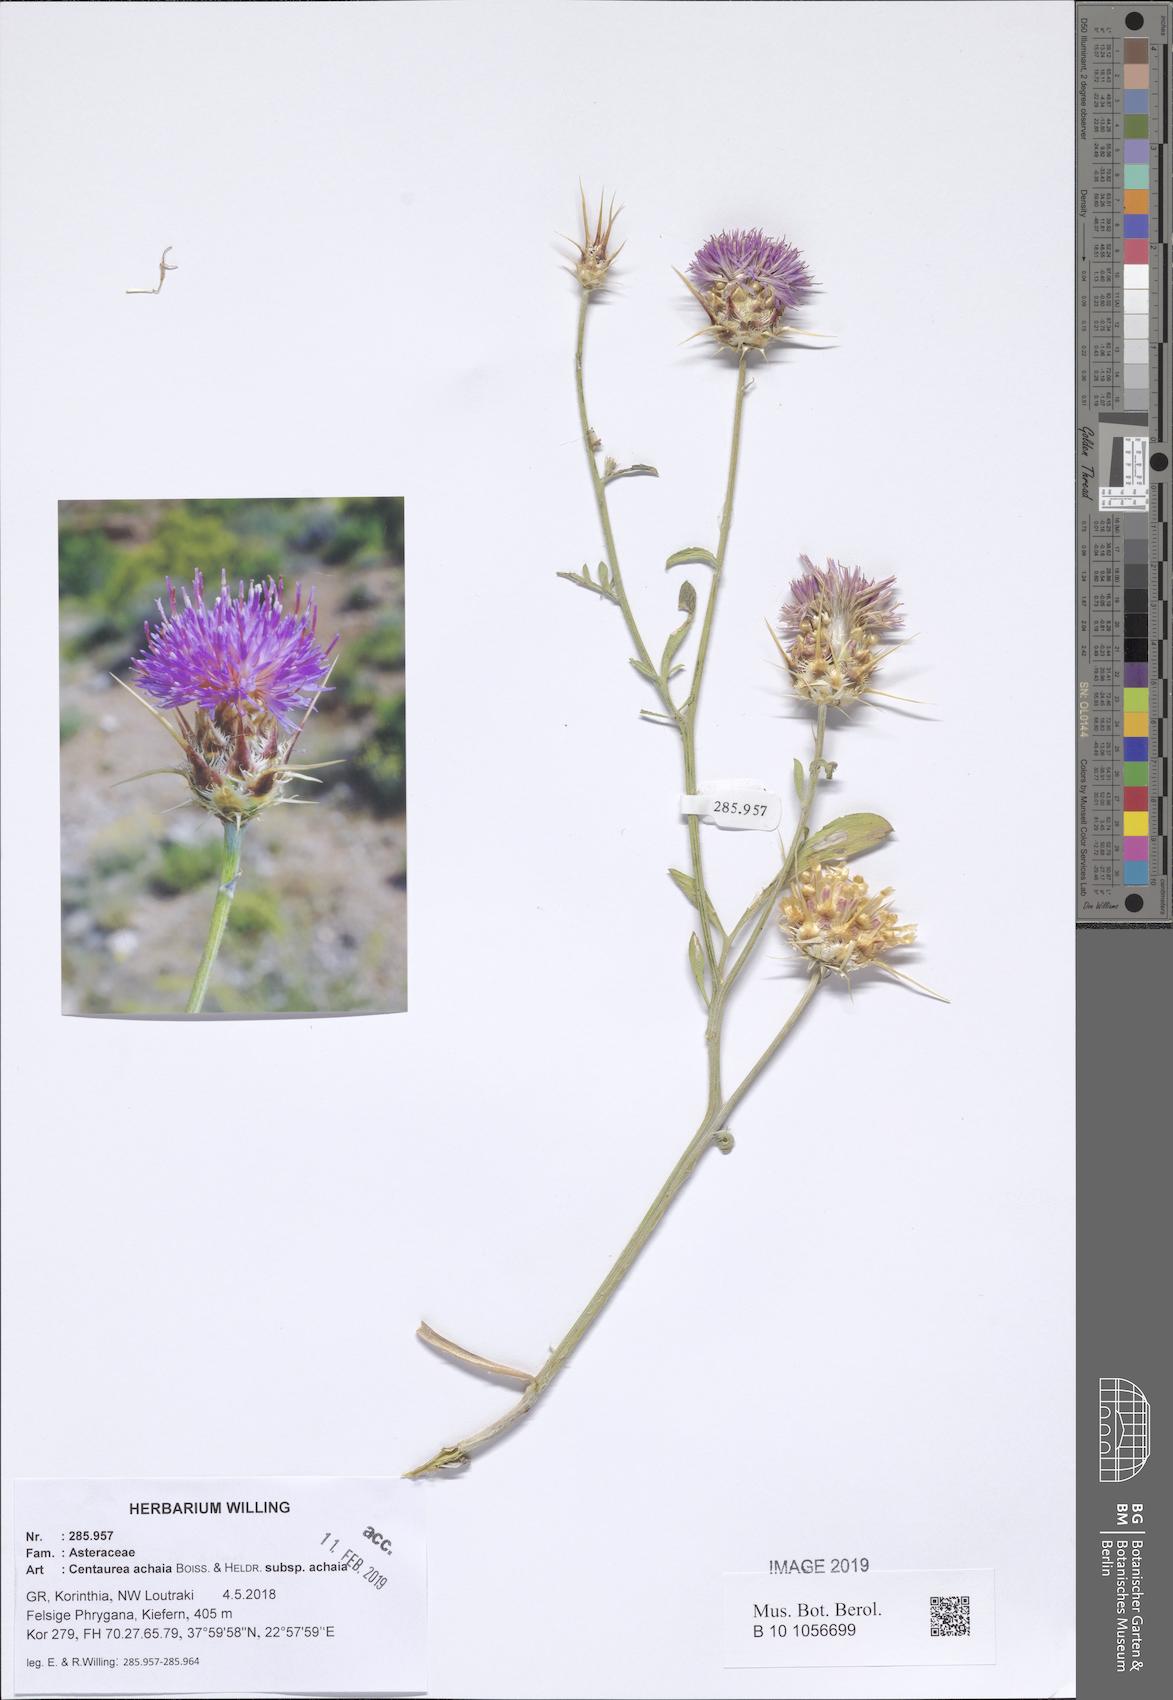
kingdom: Plantae
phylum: Tracheophyta
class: Magnoliopsida
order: Asterales
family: Asteraceae
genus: Centaurea
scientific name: Centaurea achaia
